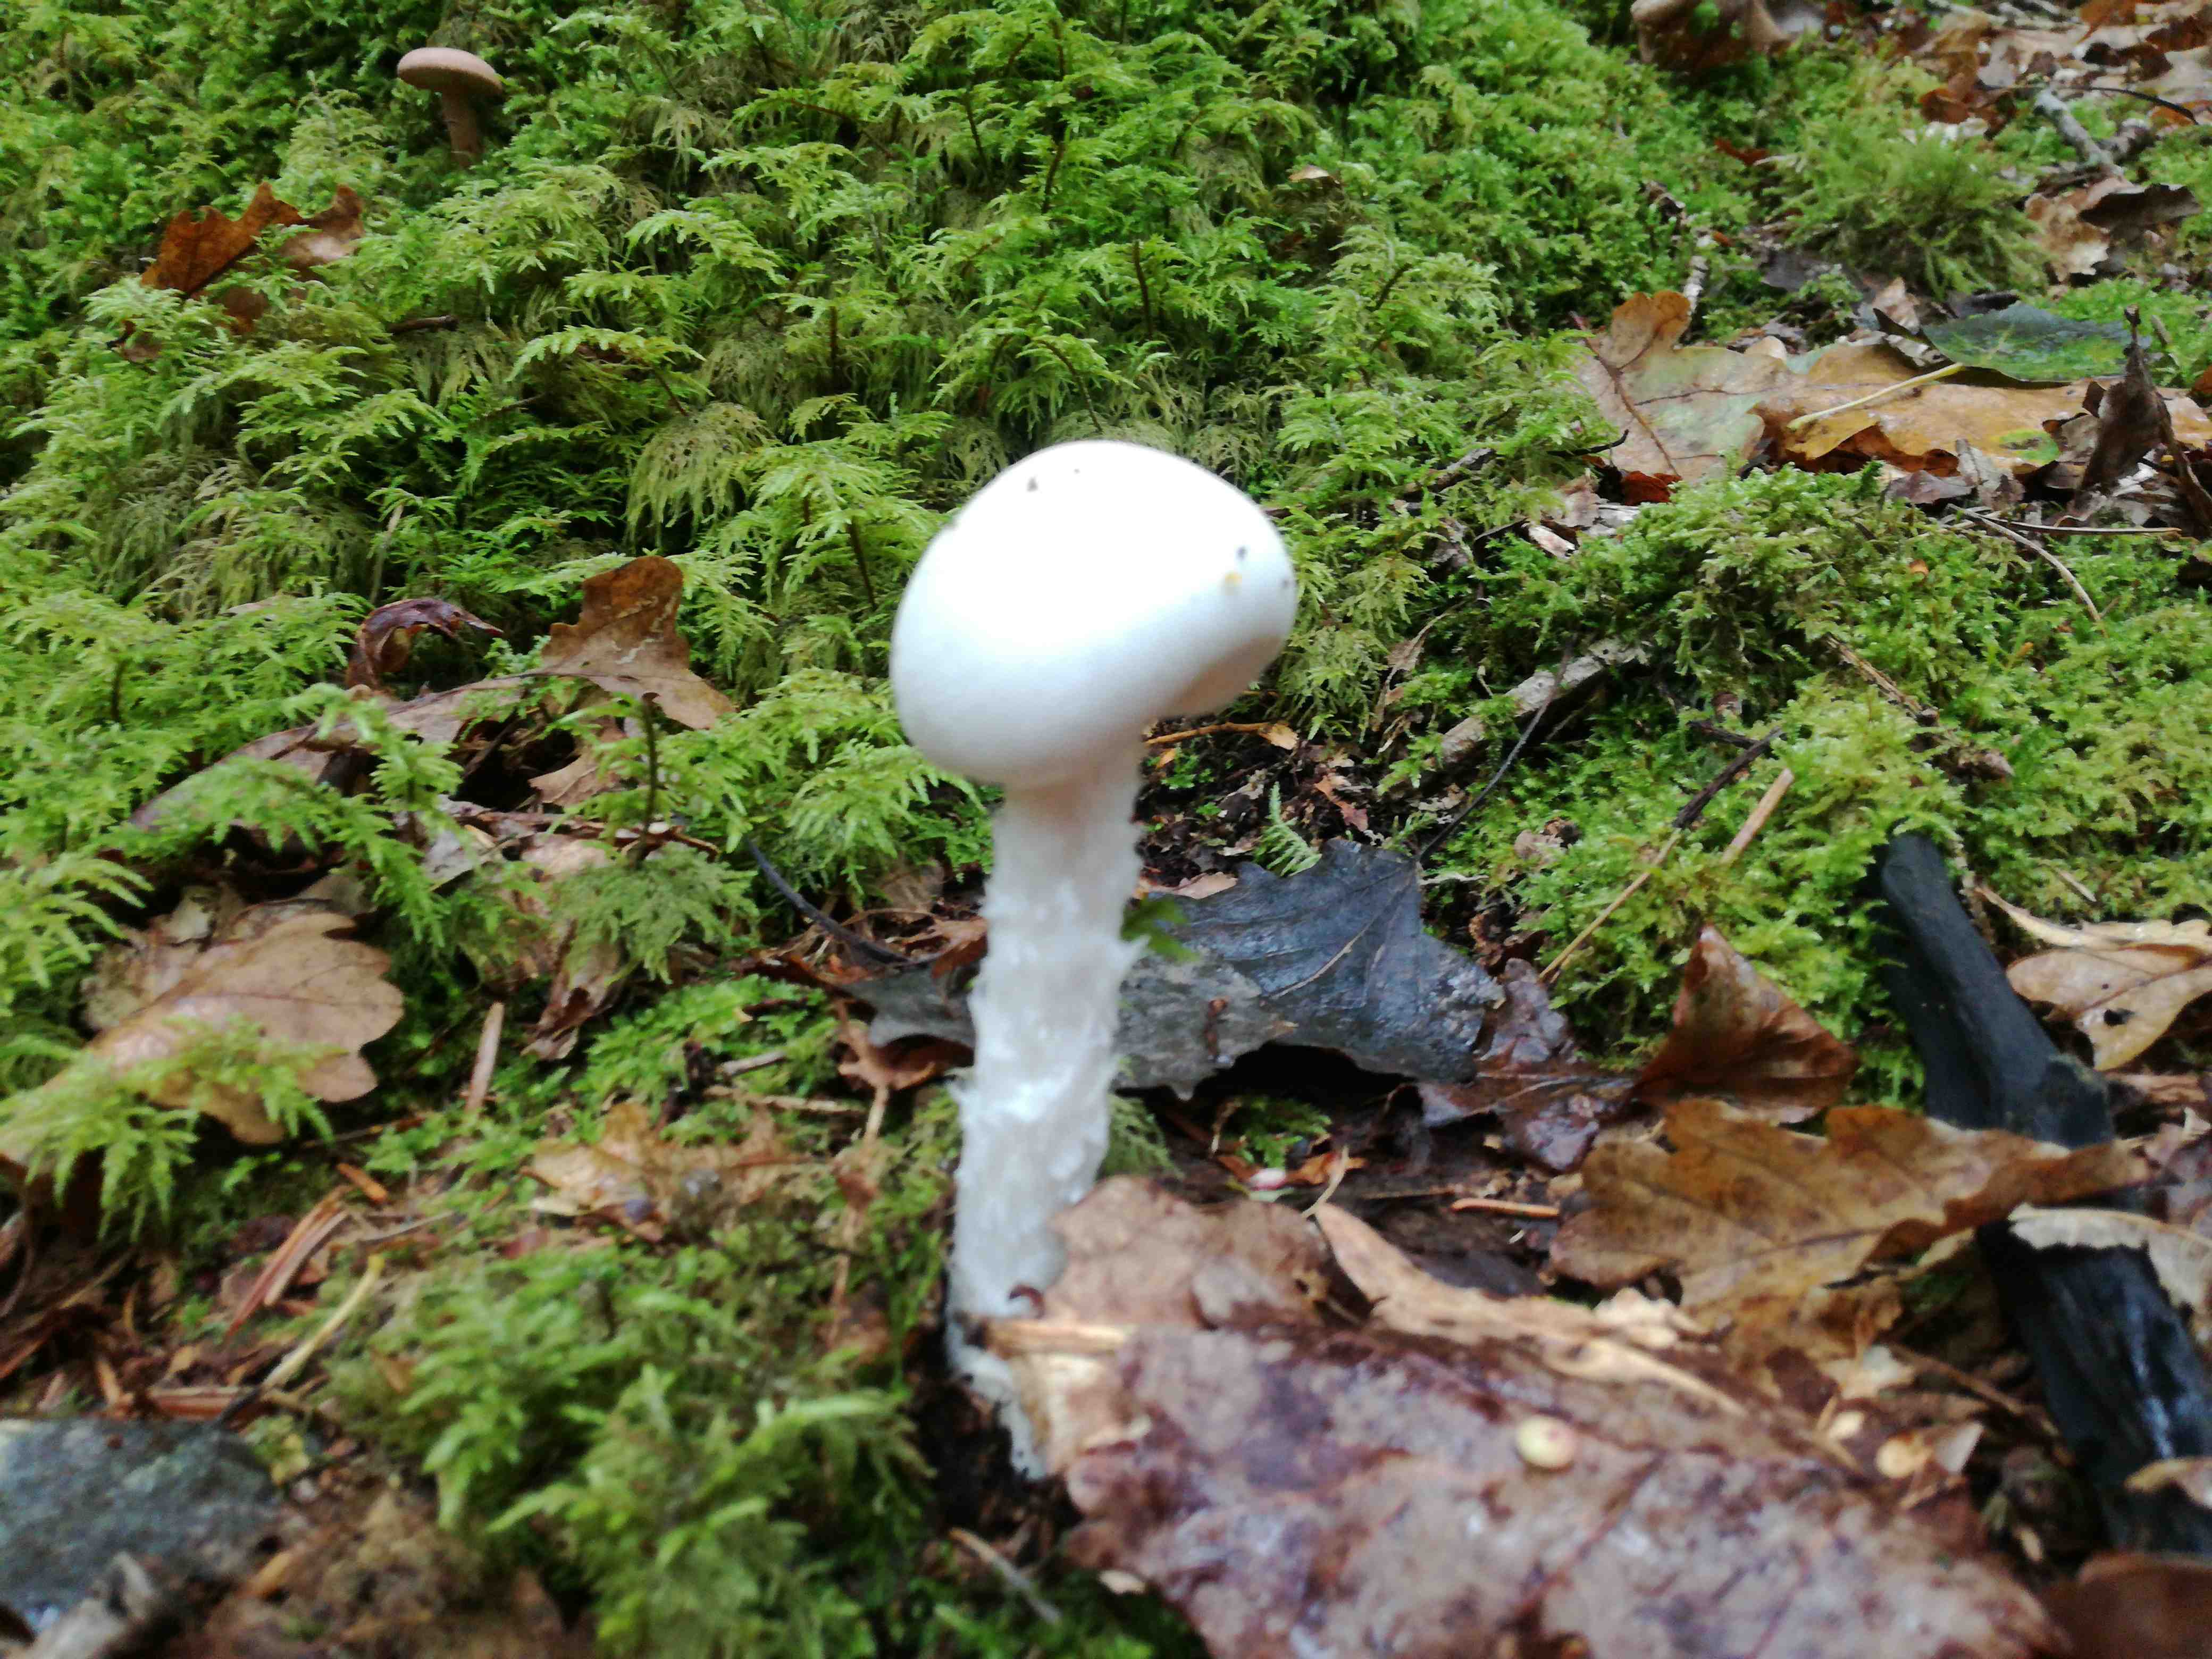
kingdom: Fungi
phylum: Basidiomycota
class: Agaricomycetes
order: Agaricales
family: Amanitaceae
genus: Amanita
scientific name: Amanita virosa
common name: snehvid fluesvamp
